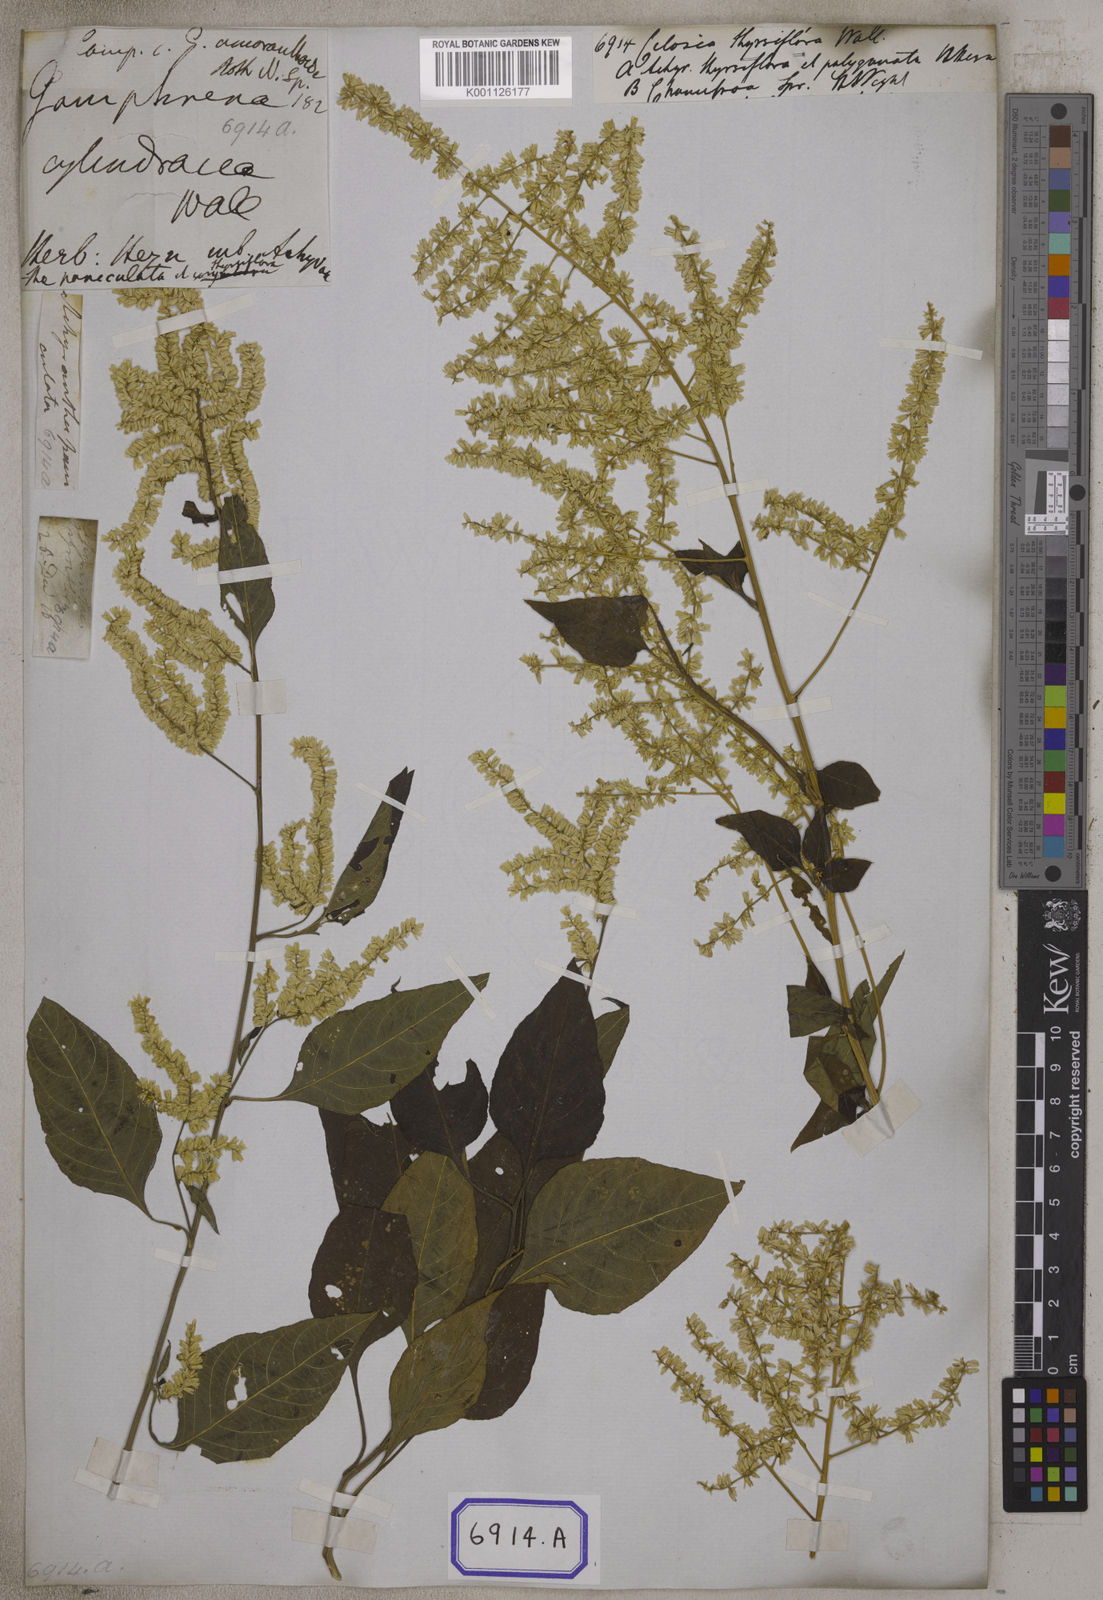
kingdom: Plantae
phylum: Tracheophyta
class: Magnoliopsida
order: Caryophyllales
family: Amaranthaceae
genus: Indobanalia
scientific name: Indobanalia thyrsiflora
